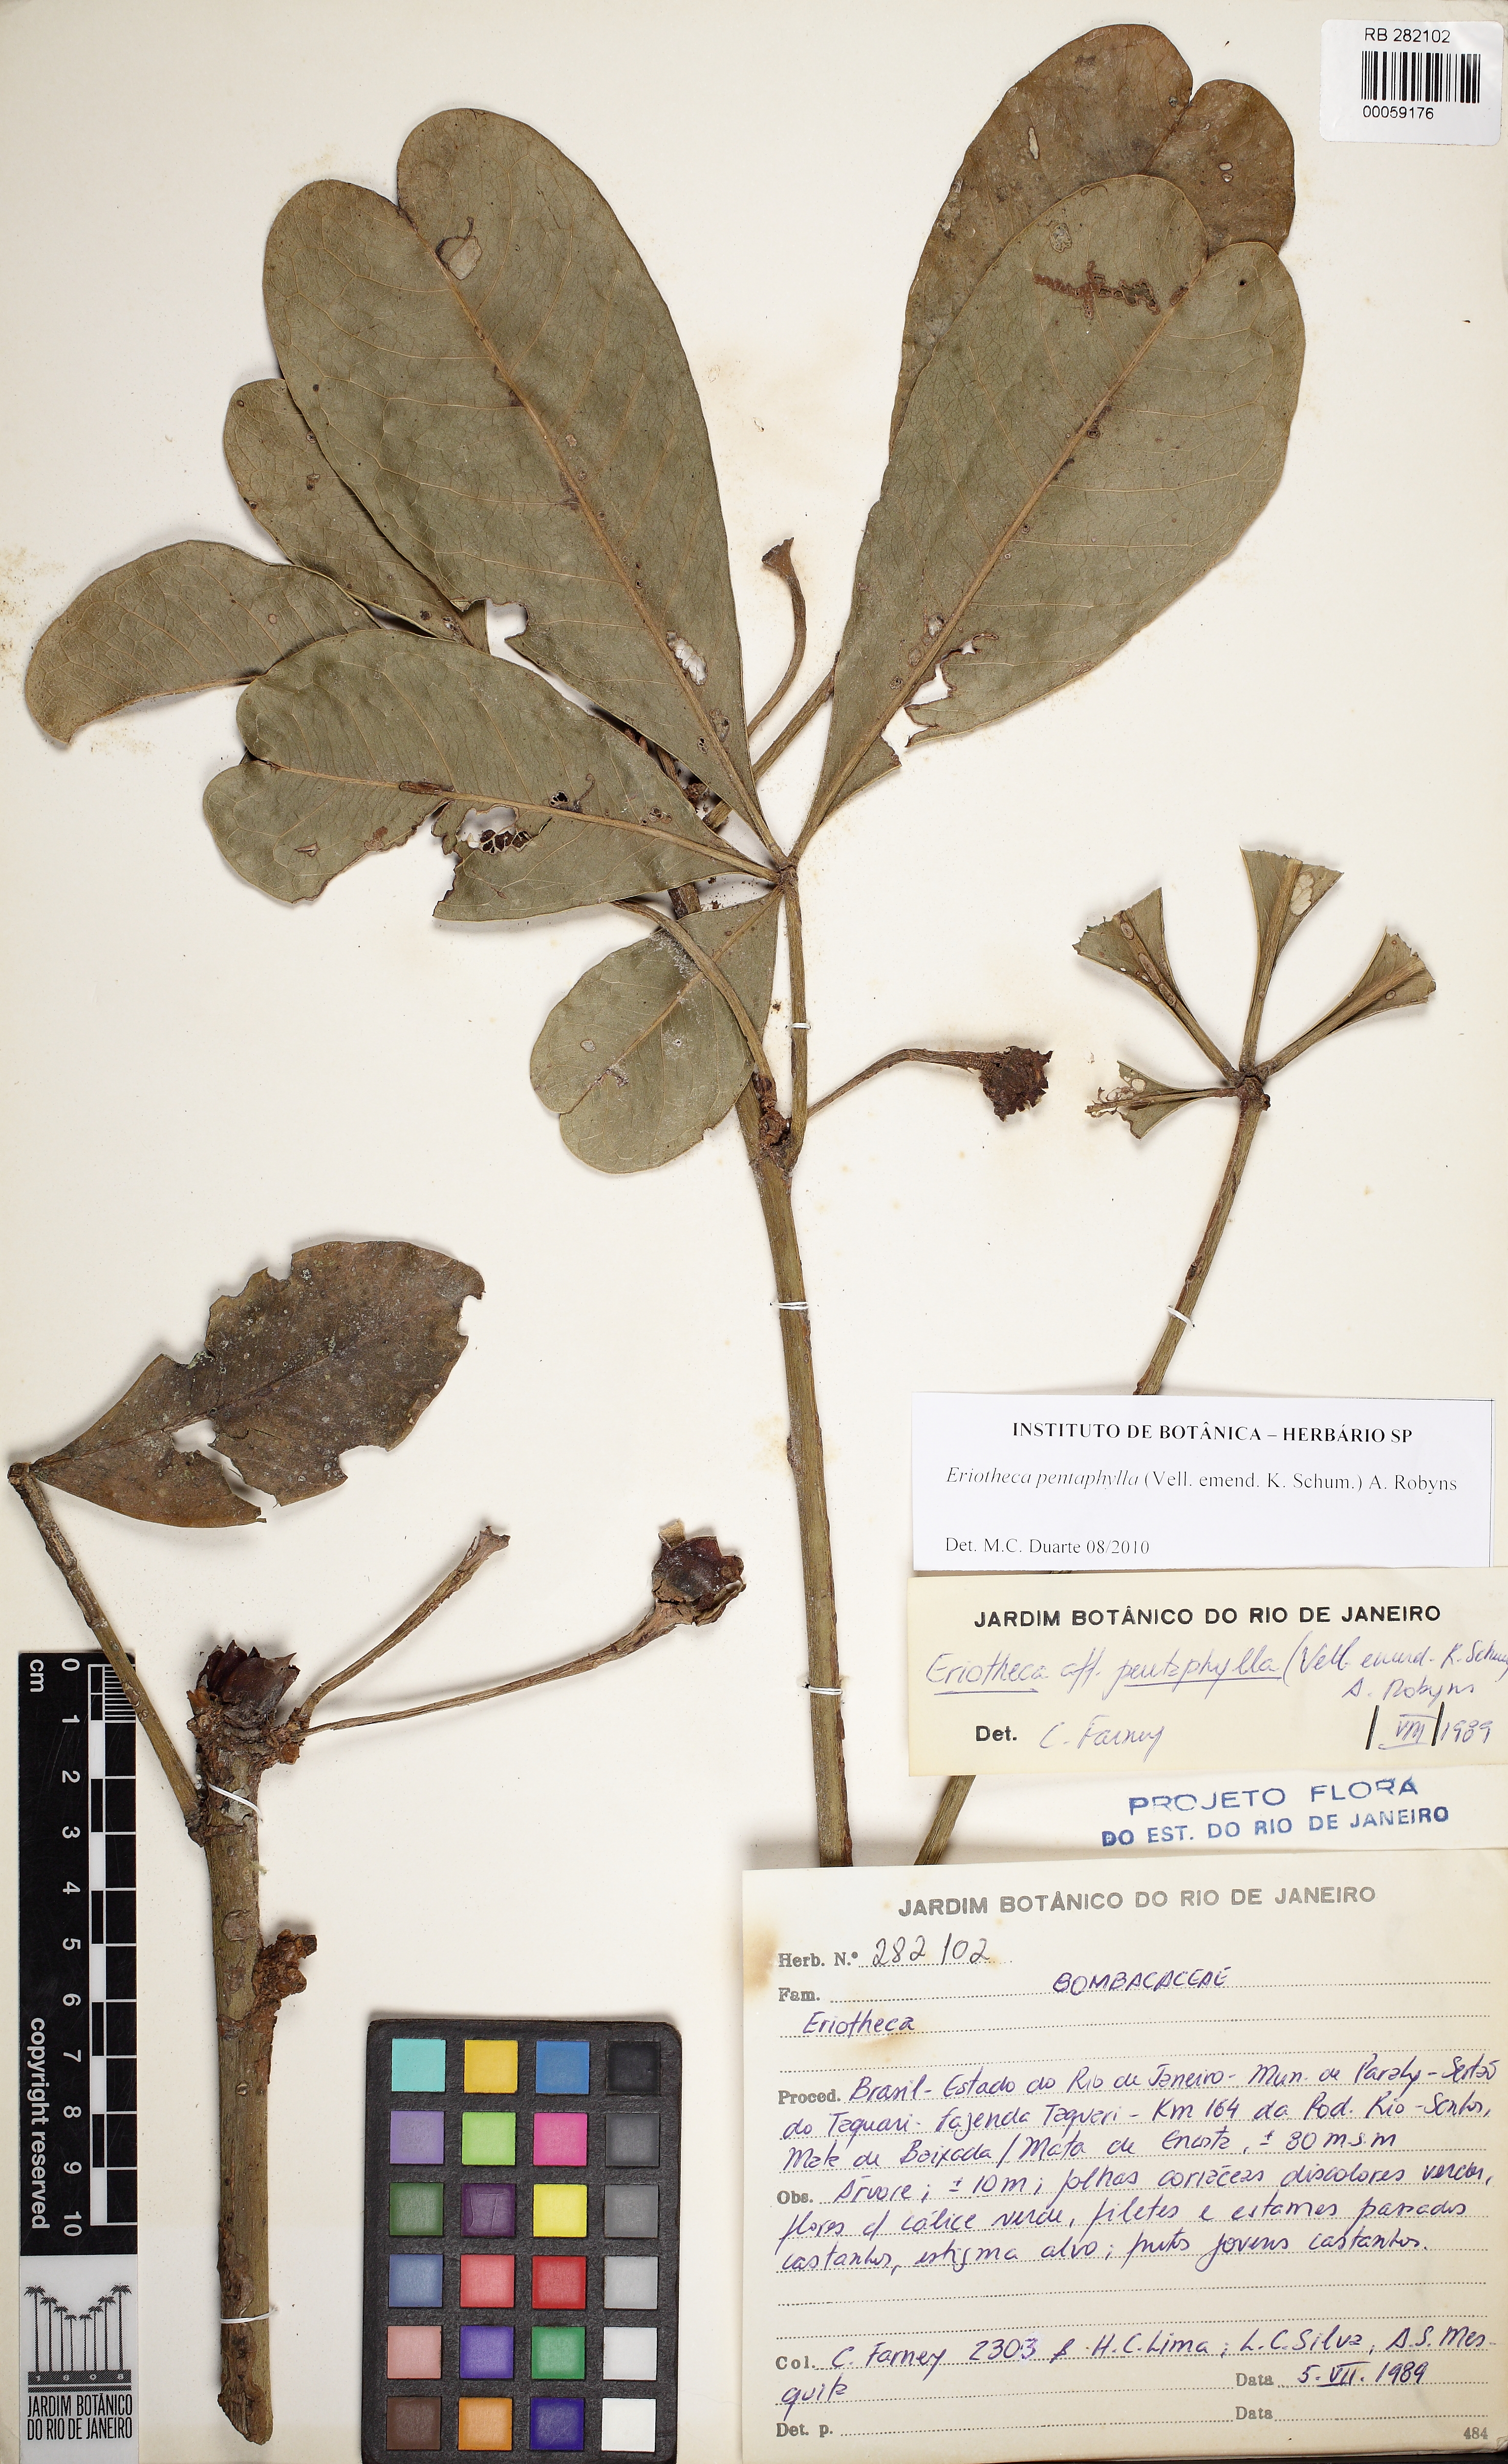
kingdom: Plantae
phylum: Tracheophyta
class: Magnoliopsida
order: Malvales
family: Malvaceae
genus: Eriotheca
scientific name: Eriotheca pentaphylla
